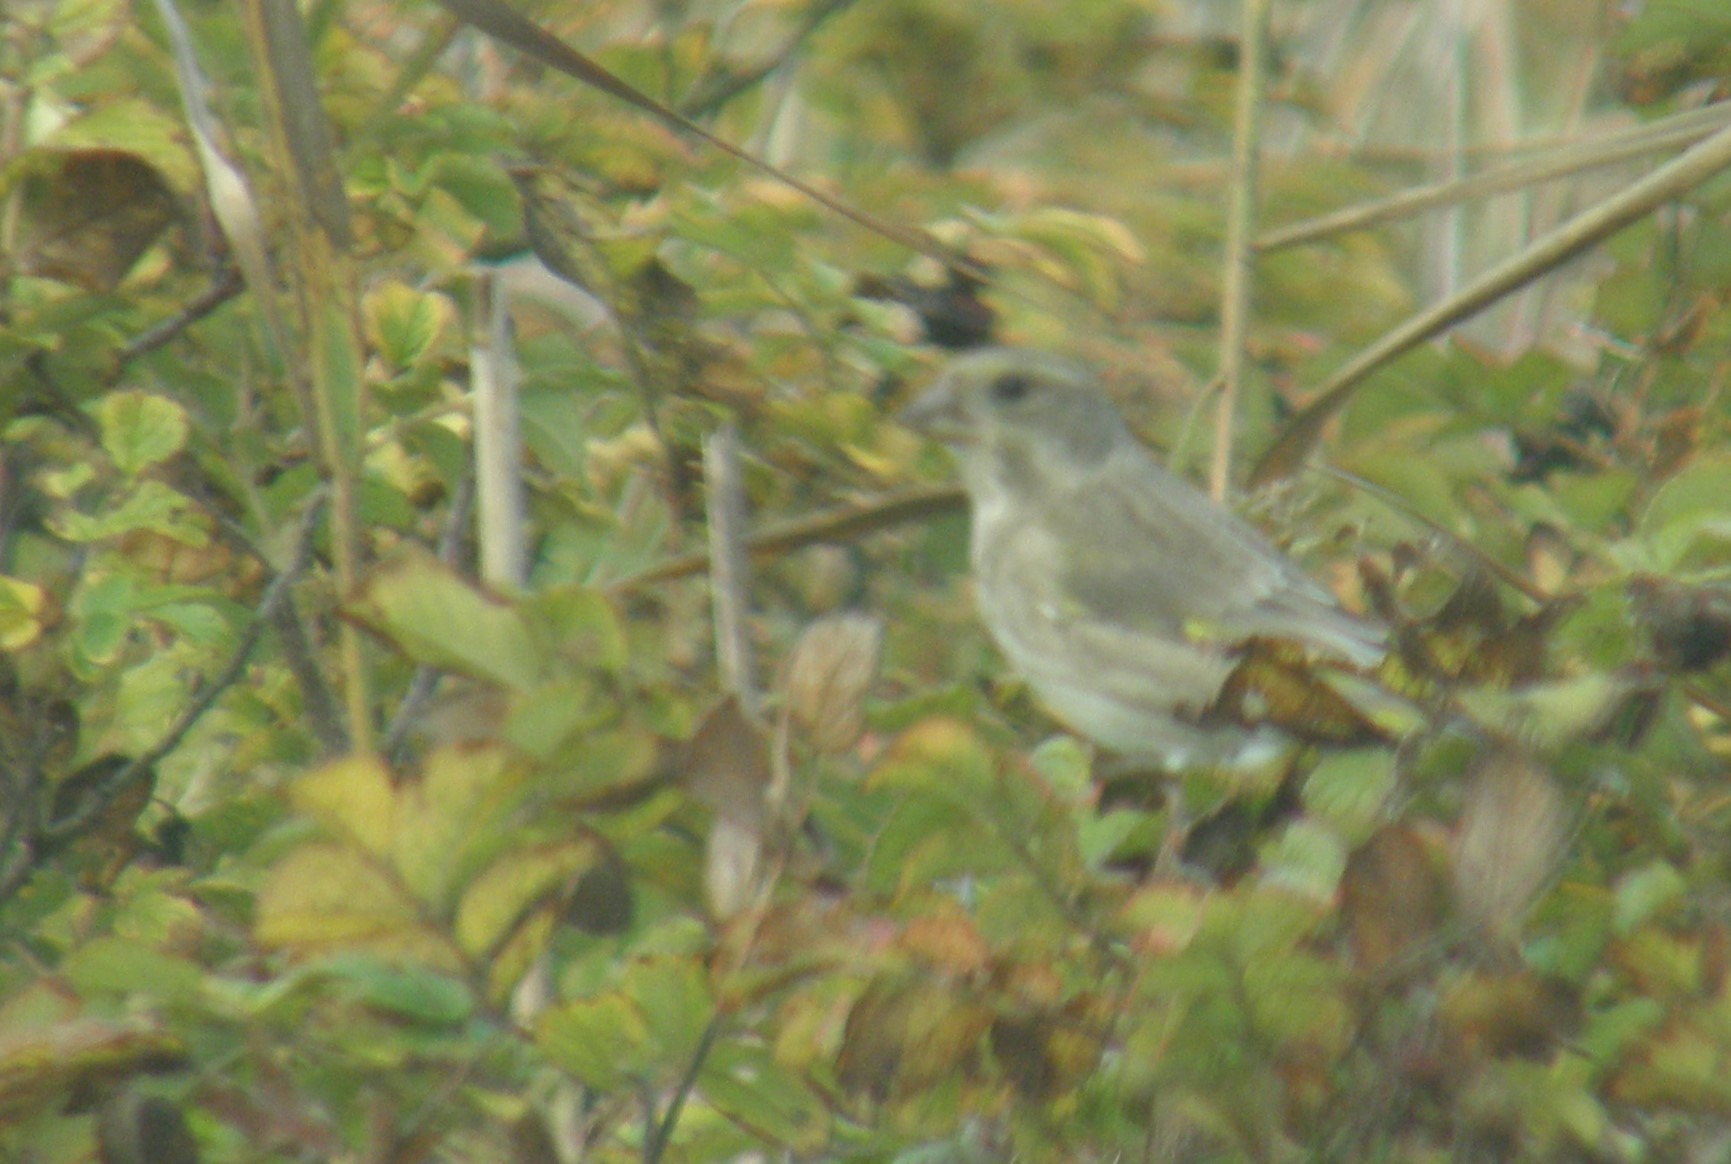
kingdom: Plantae
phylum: Tracheophyta
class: Liliopsida
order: Poales
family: Poaceae
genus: Chloris
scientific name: Chloris chloris
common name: Grønirisk
